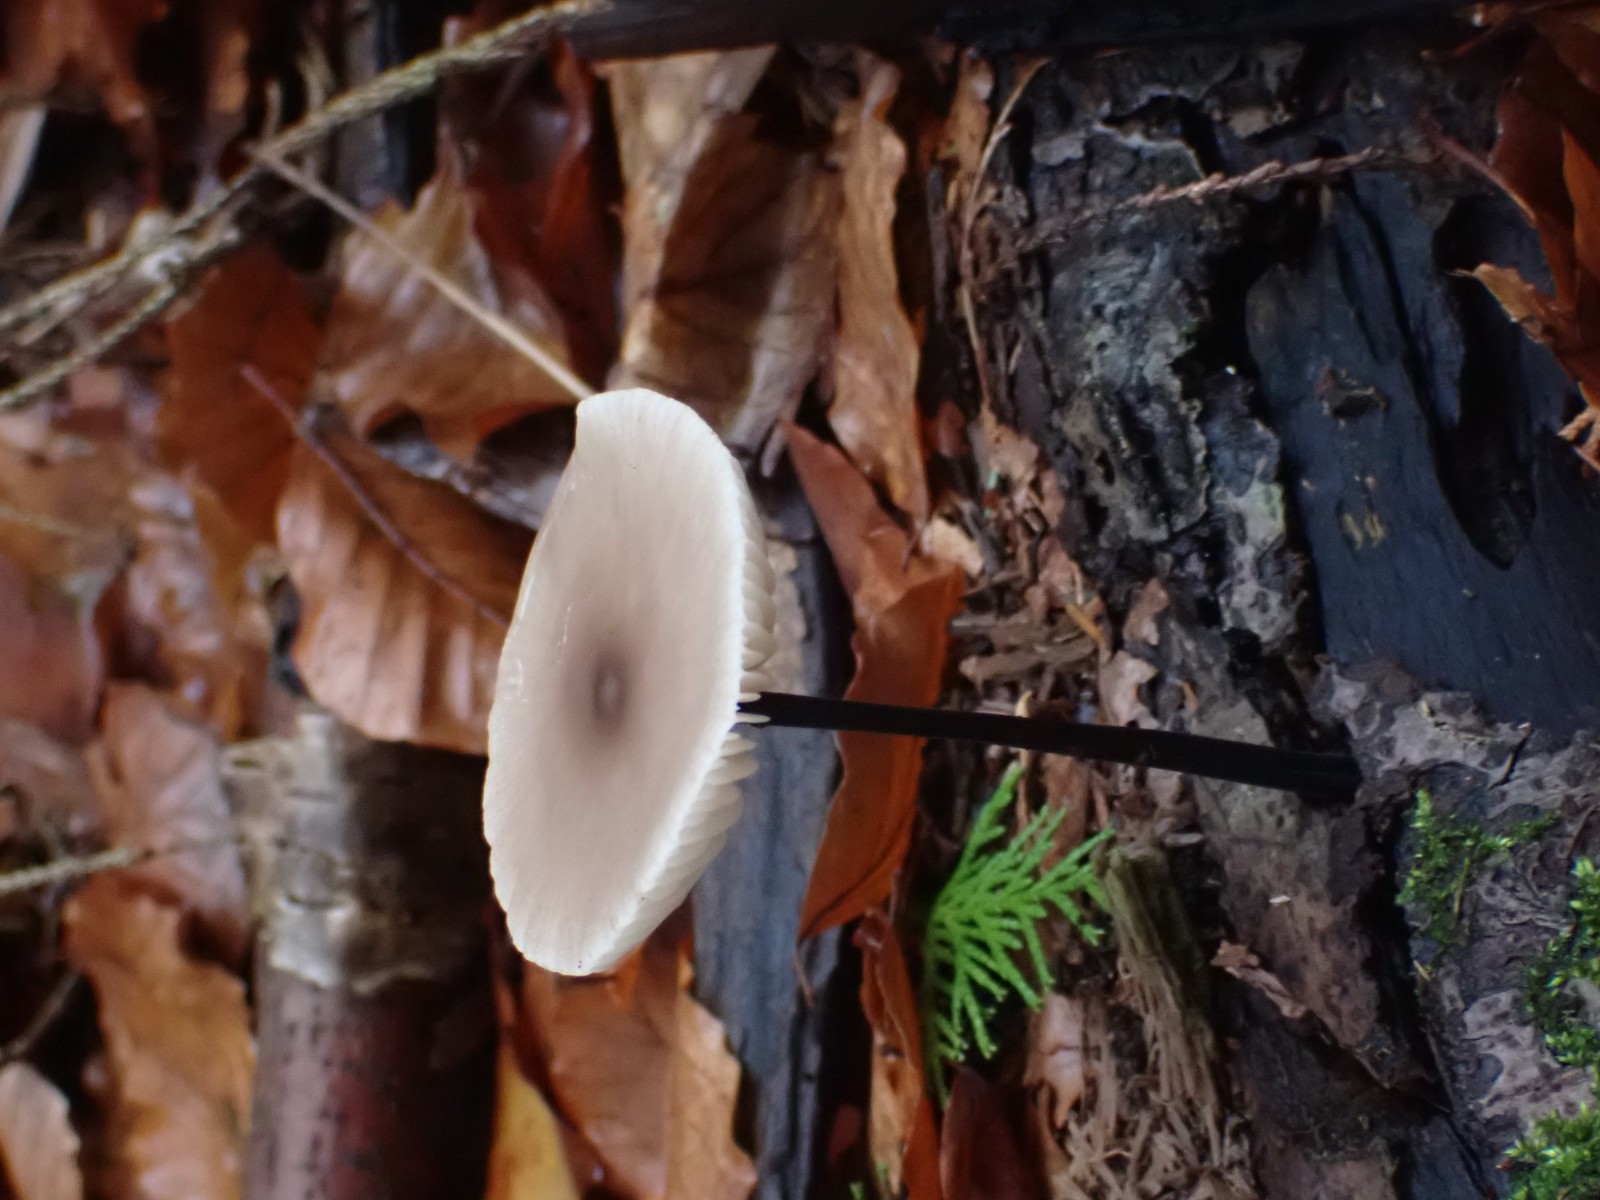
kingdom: Fungi
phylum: Basidiomycota
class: Agaricomycetes
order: Agaricales
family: Omphalotaceae
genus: Mycetinis
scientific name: Mycetinis alliaceus
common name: stor løghat
